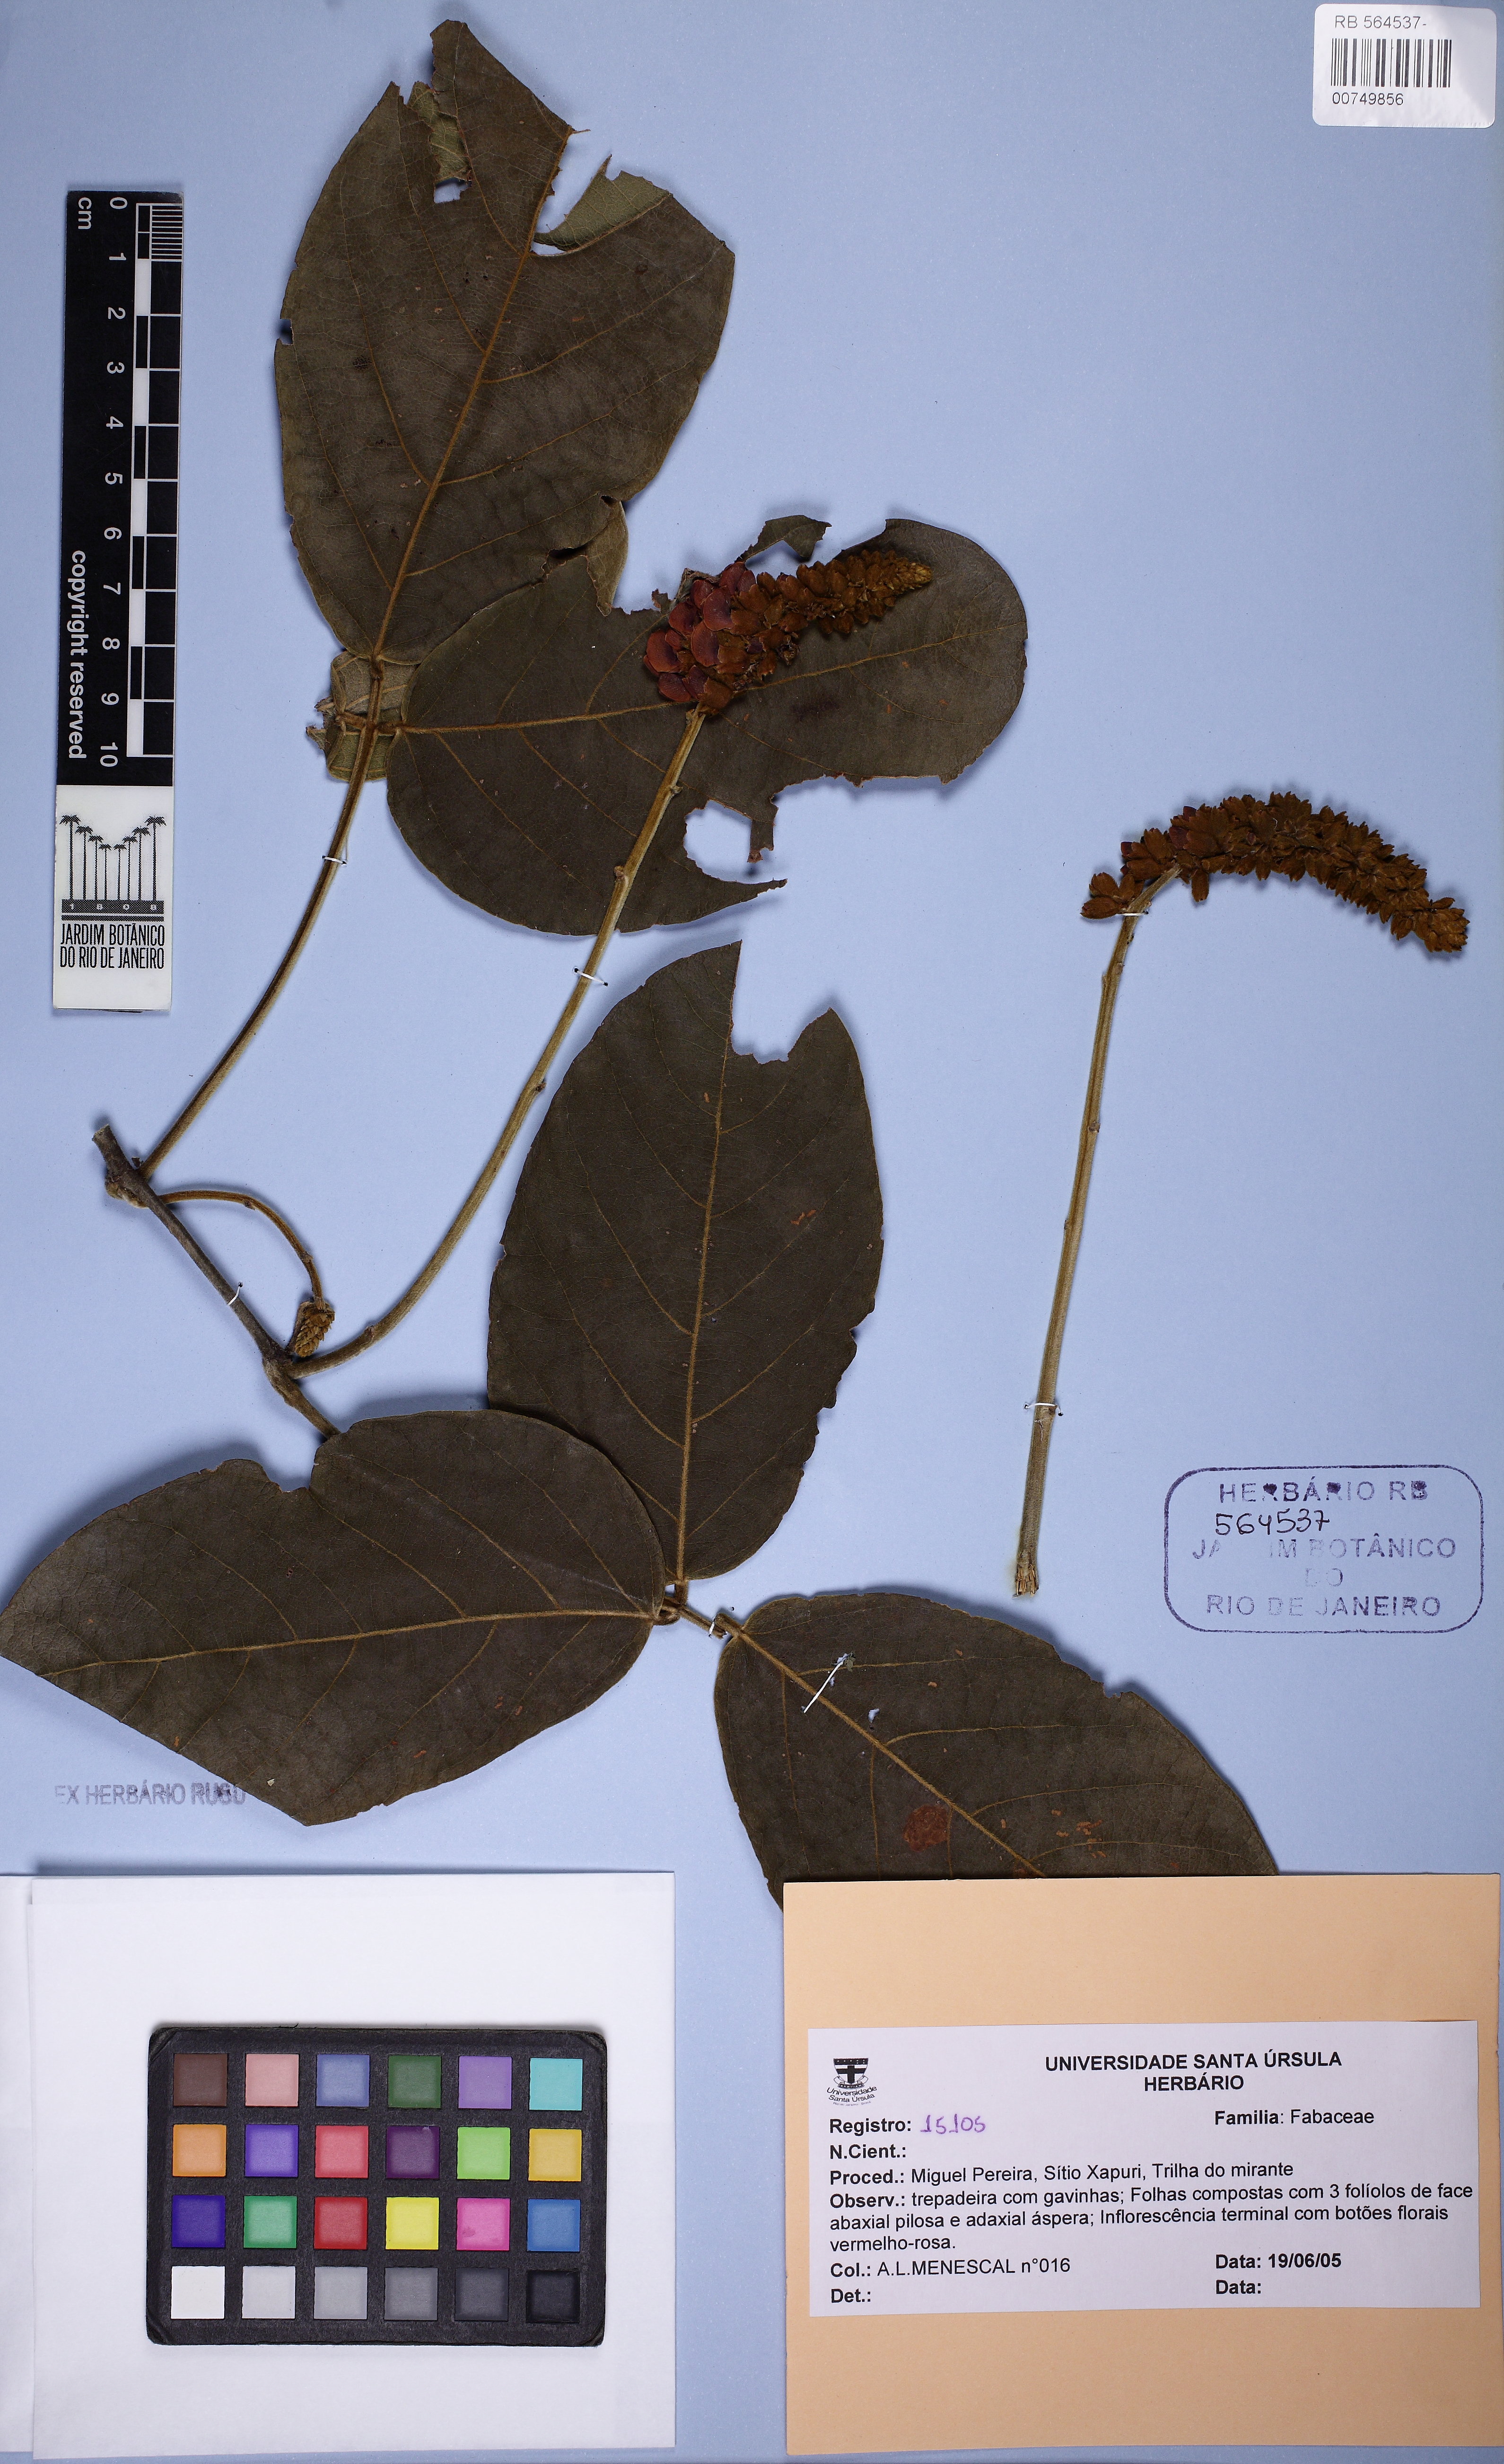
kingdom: Plantae
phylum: Tracheophyta
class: Magnoliopsida
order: Fabales
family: Fabaceae
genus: Cleobulia
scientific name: Cleobulia coccinea
